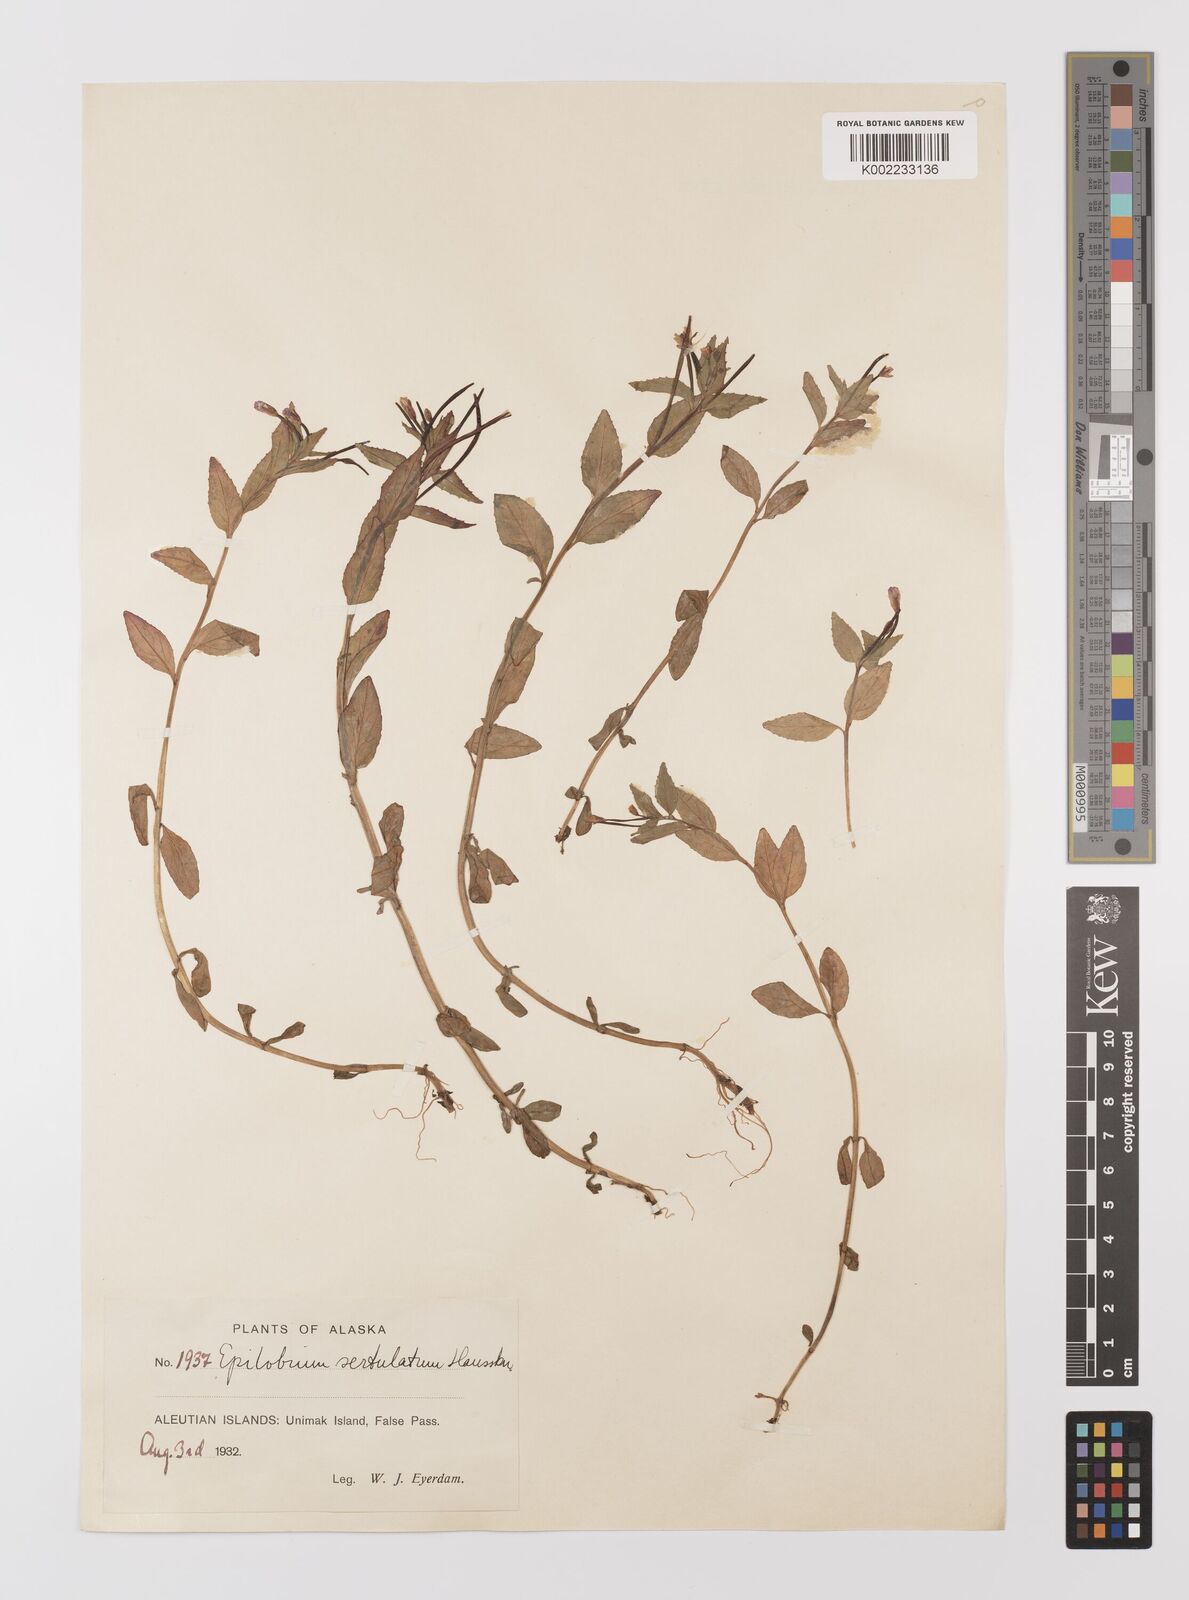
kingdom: Plantae
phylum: Tracheophyta
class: Magnoliopsida
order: Myrtales
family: Onagraceae
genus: Epilobium
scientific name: Epilobium hornemannii
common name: Hornemann's willowherb
